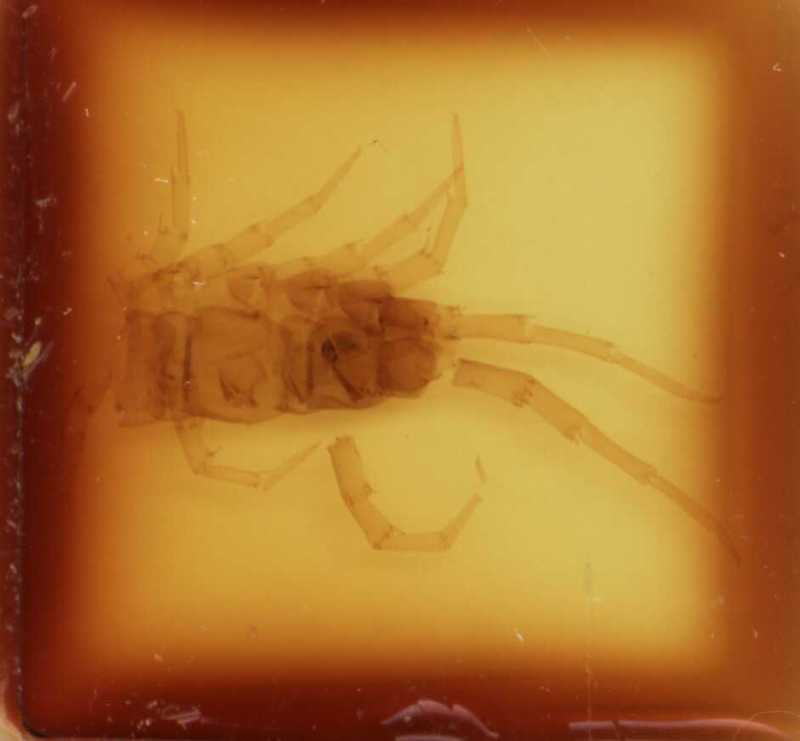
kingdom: Animalia
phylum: Arthropoda
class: Chilopoda
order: Lithobiomorpha
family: Lithobiidae
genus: Lithobius
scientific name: Lithobius variegatus
